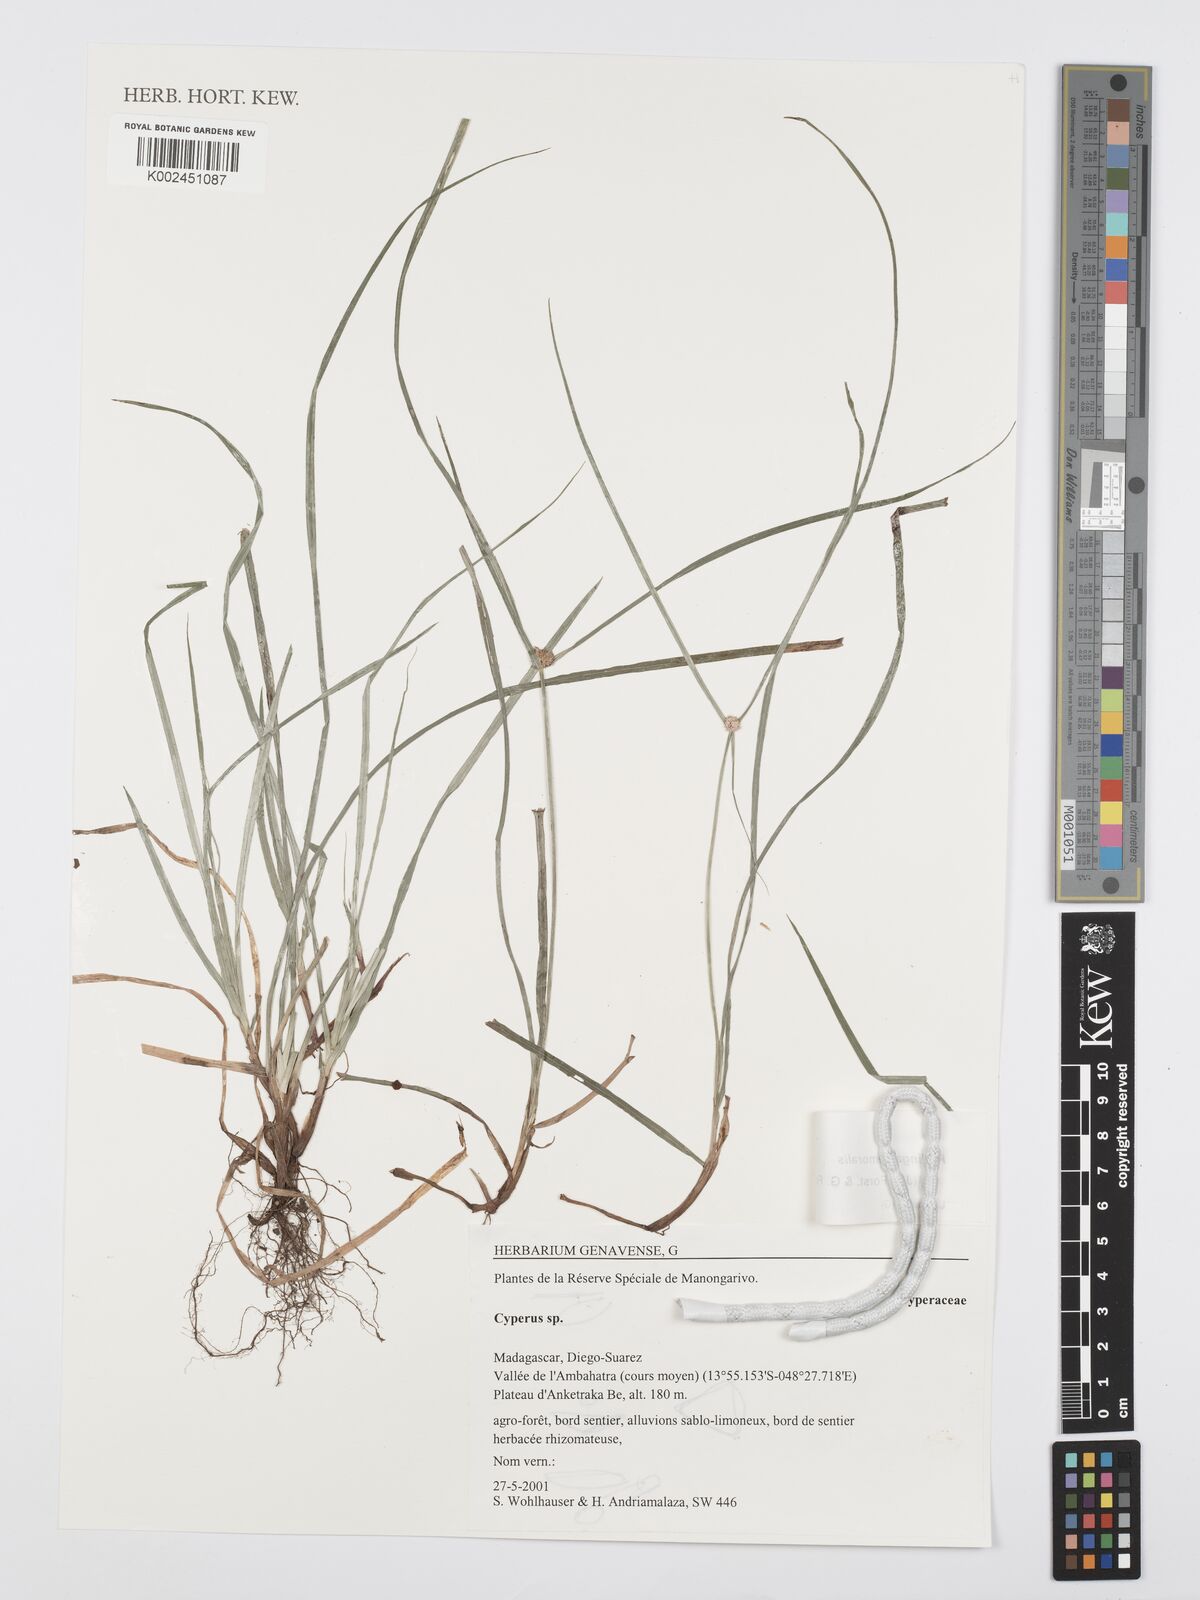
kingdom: Plantae
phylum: Tracheophyta
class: Liliopsida
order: Poales
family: Cyperaceae
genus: Cyperus
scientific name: Cyperus nemoralis
